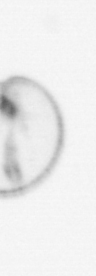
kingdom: Chromista
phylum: Myzozoa
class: Dinophyceae
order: Noctilucales
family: Noctilucaceae
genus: Noctiluca
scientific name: Noctiluca scintillans
